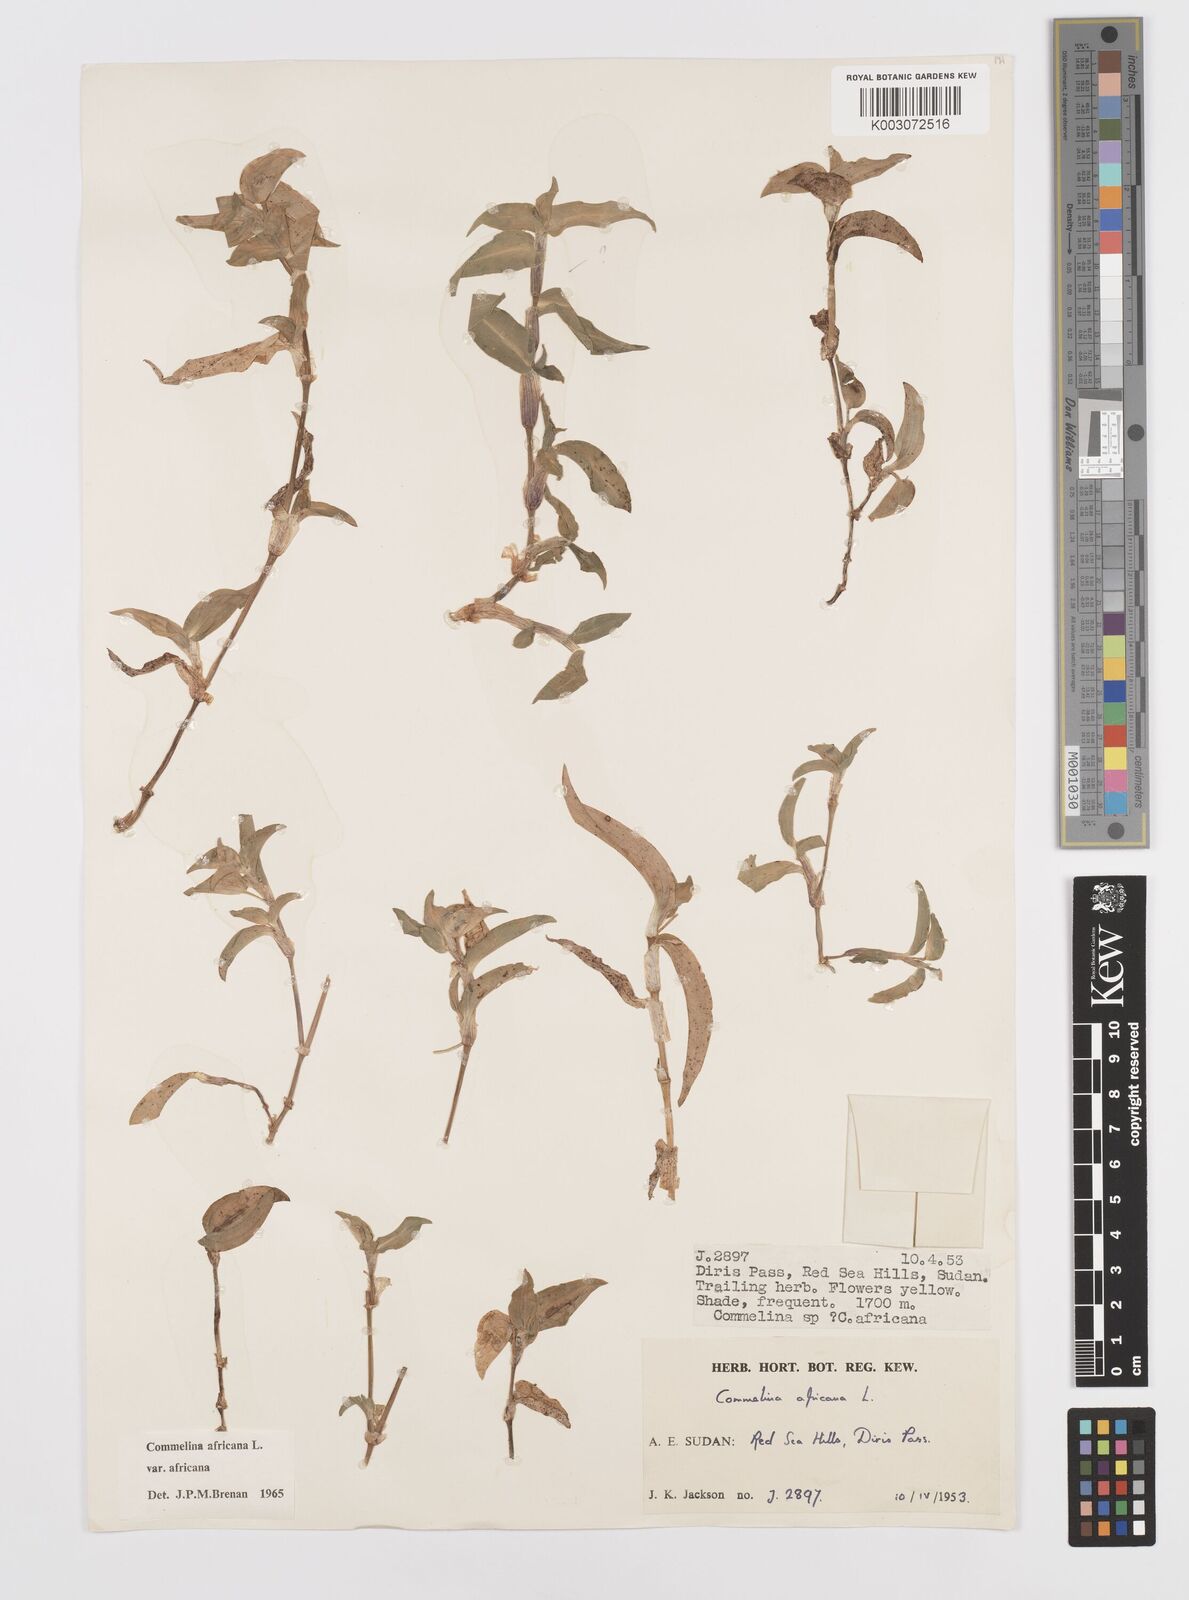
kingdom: Plantae
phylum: Tracheophyta
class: Liliopsida
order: Commelinales
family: Commelinaceae
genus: Commelina
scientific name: Commelina africana
